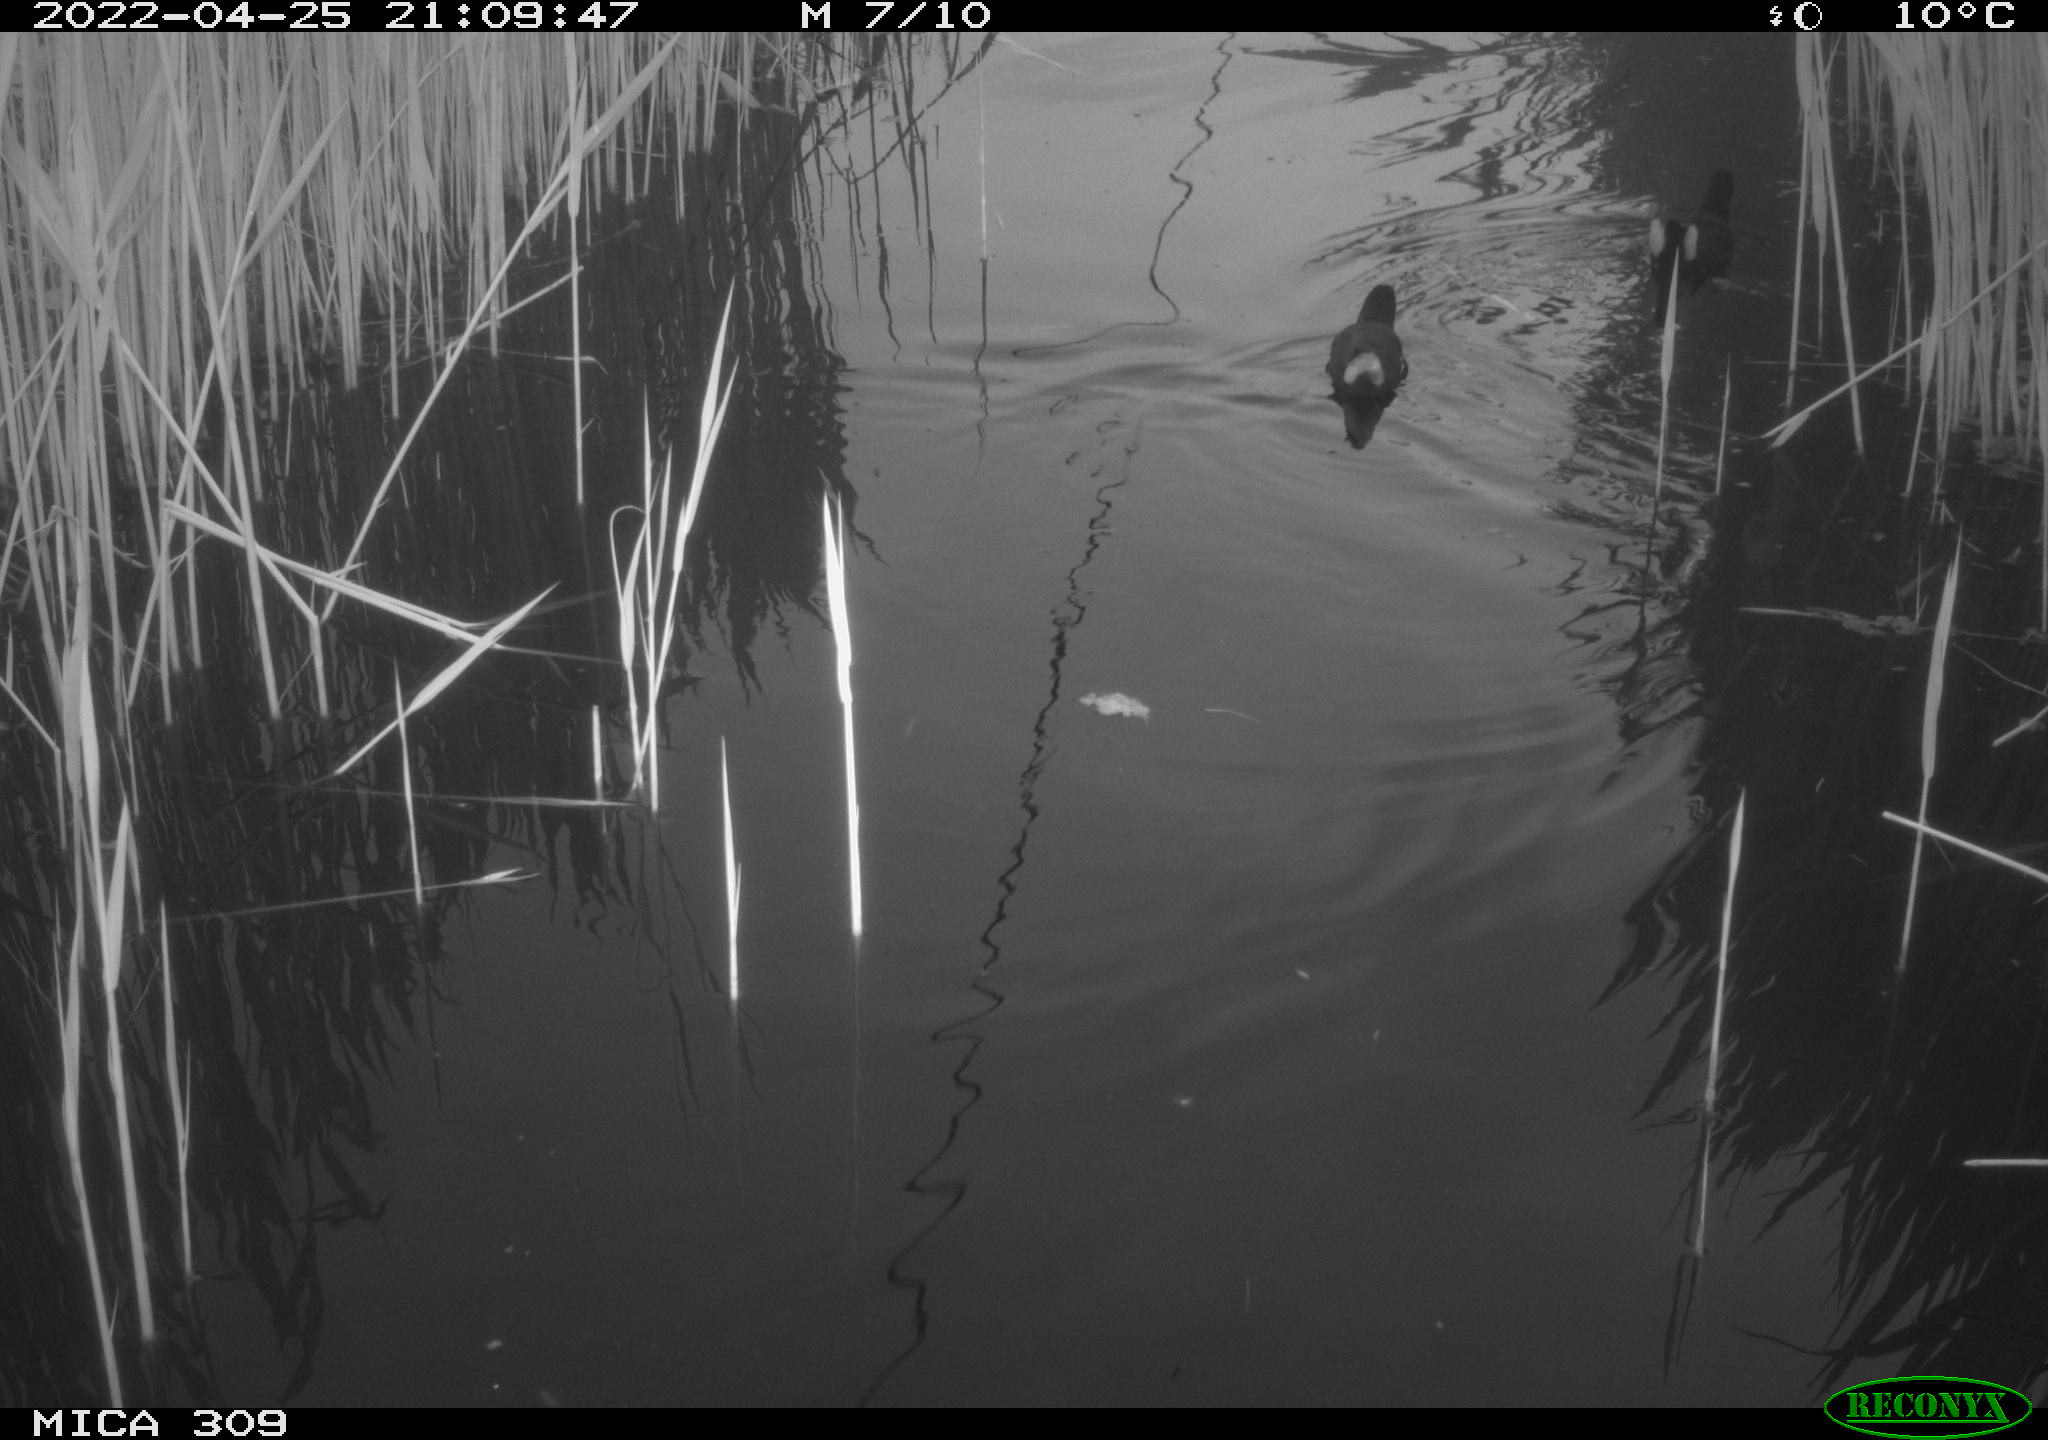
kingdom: Animalia
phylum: Chordata
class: Aves
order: Gruiformes
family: Rallidae
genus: Gallinula
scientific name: Gallinula chloropus
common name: Common moorhen
